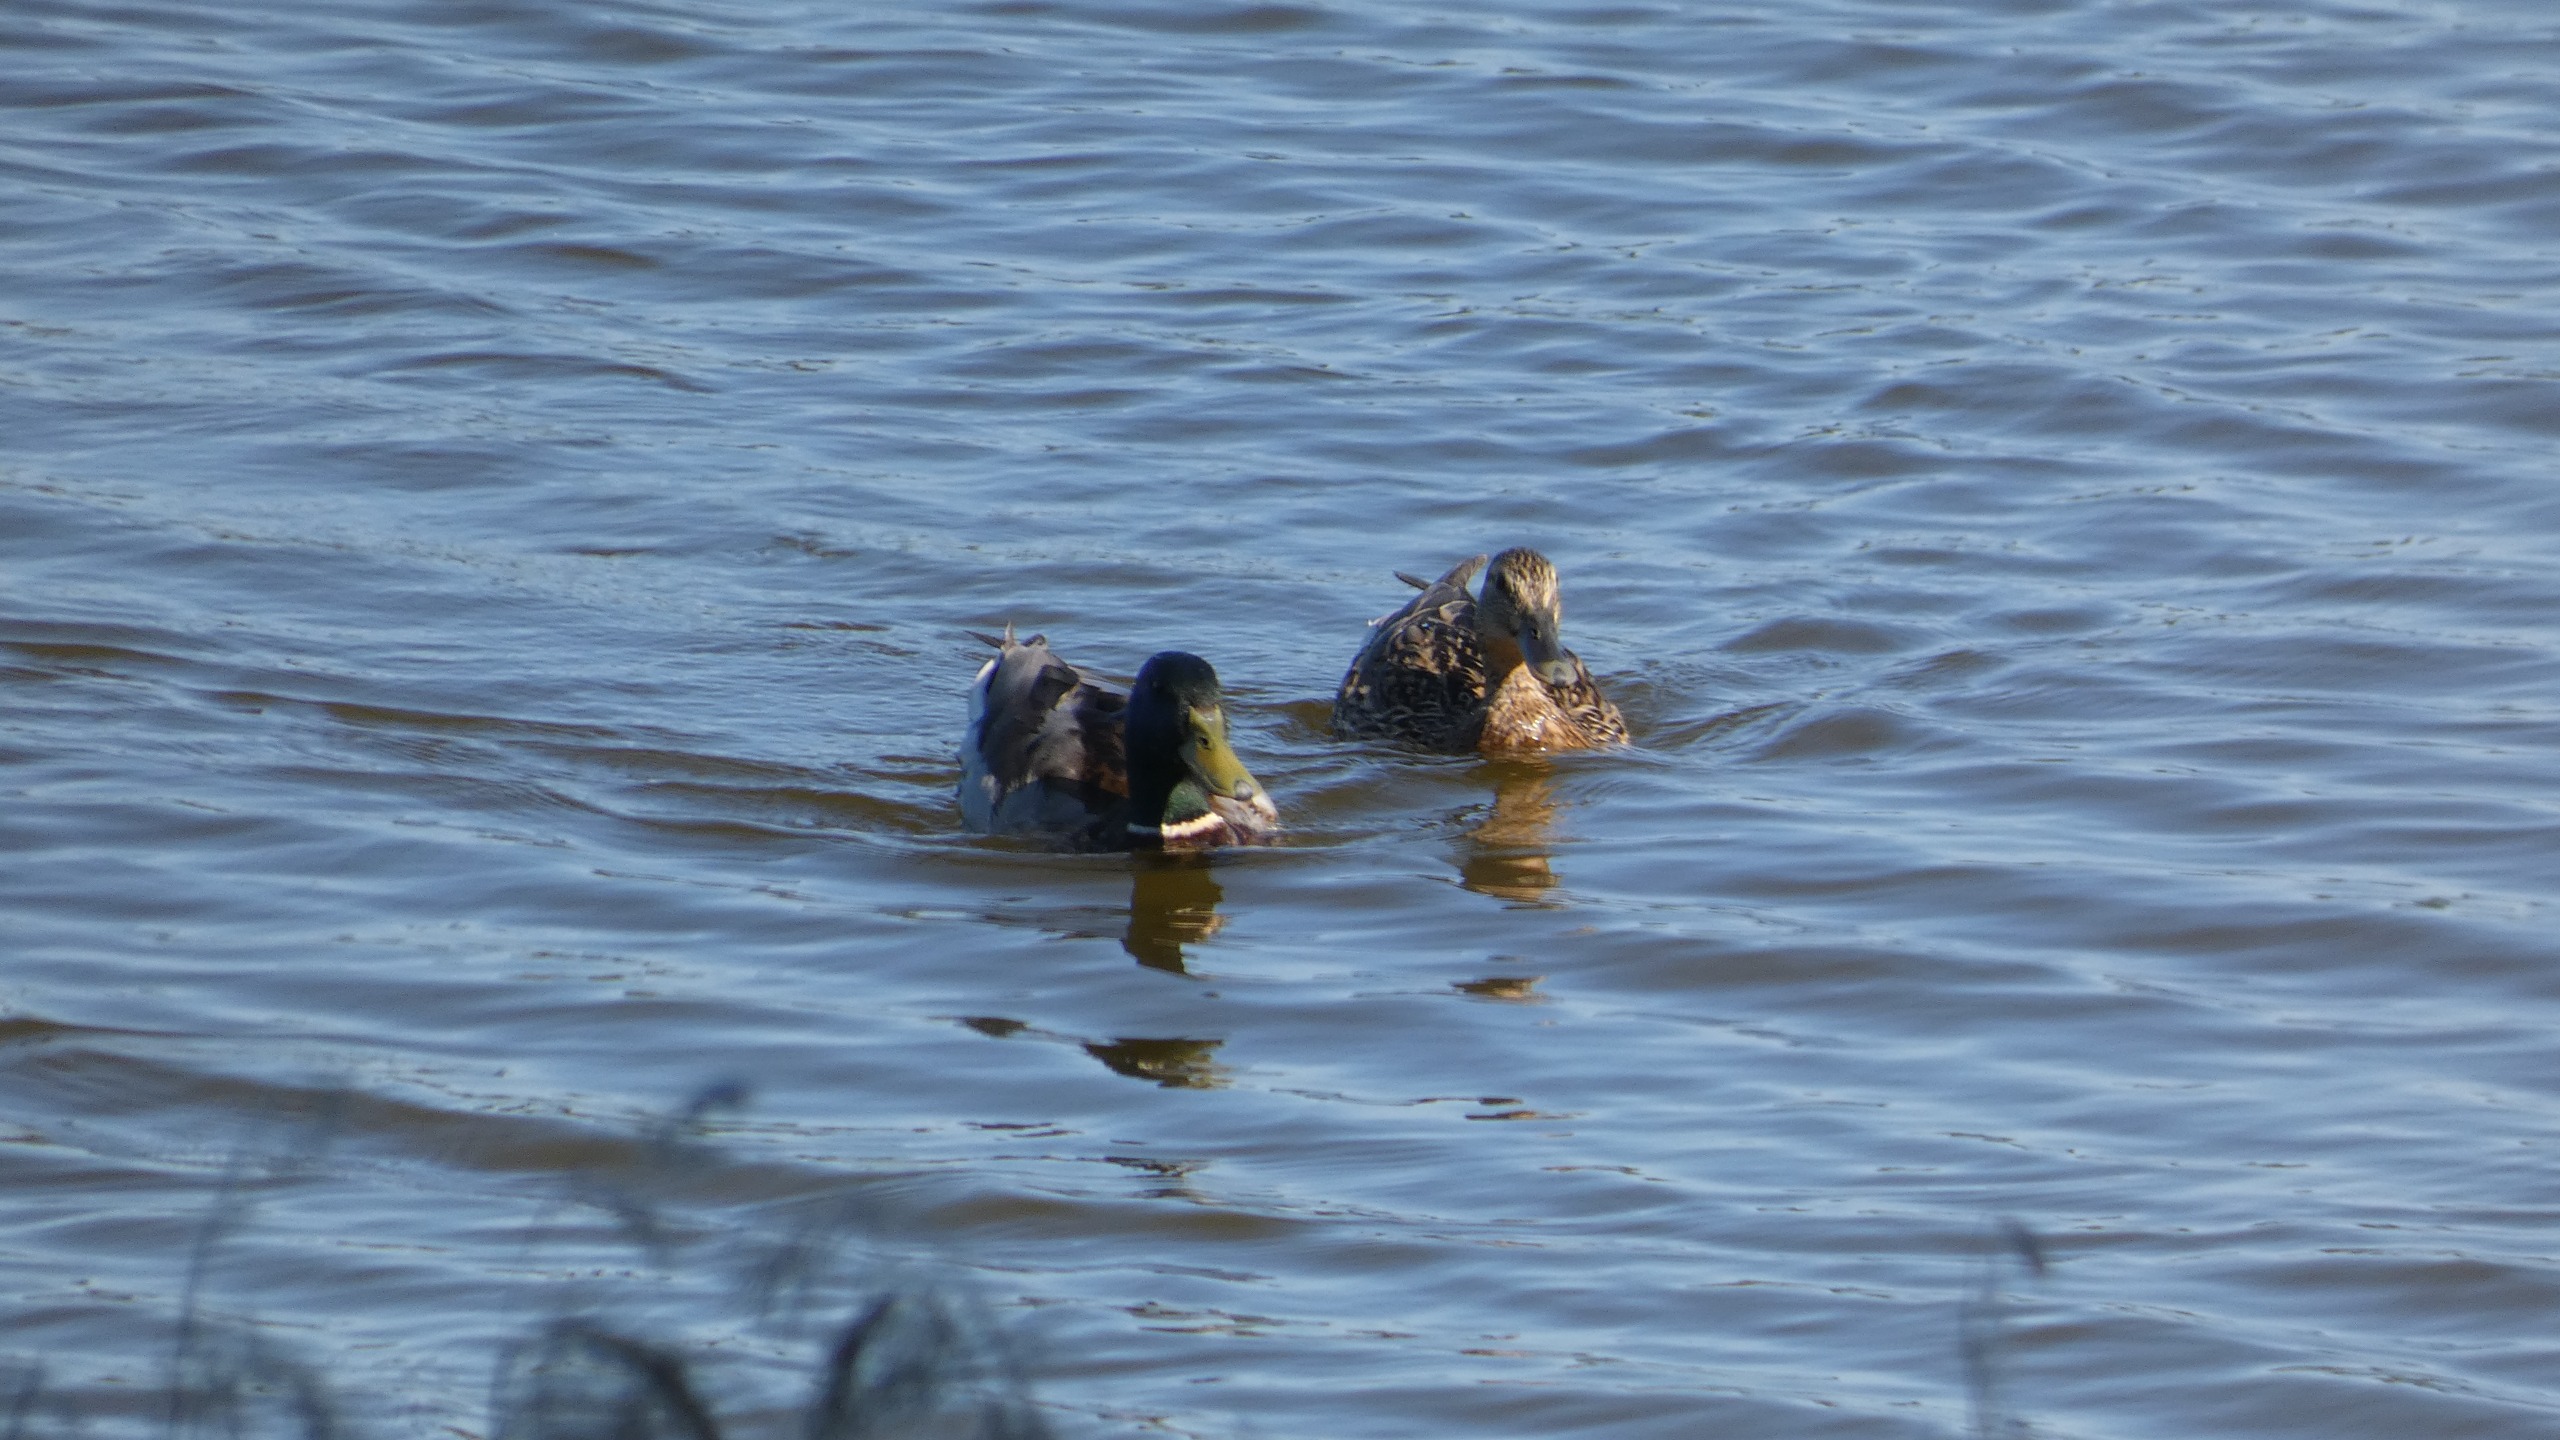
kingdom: Animalia
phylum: Chordata
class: Aves
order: Anseriformes
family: Anatidae
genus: Anas
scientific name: Anas platyrhynchos
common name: Gråand
